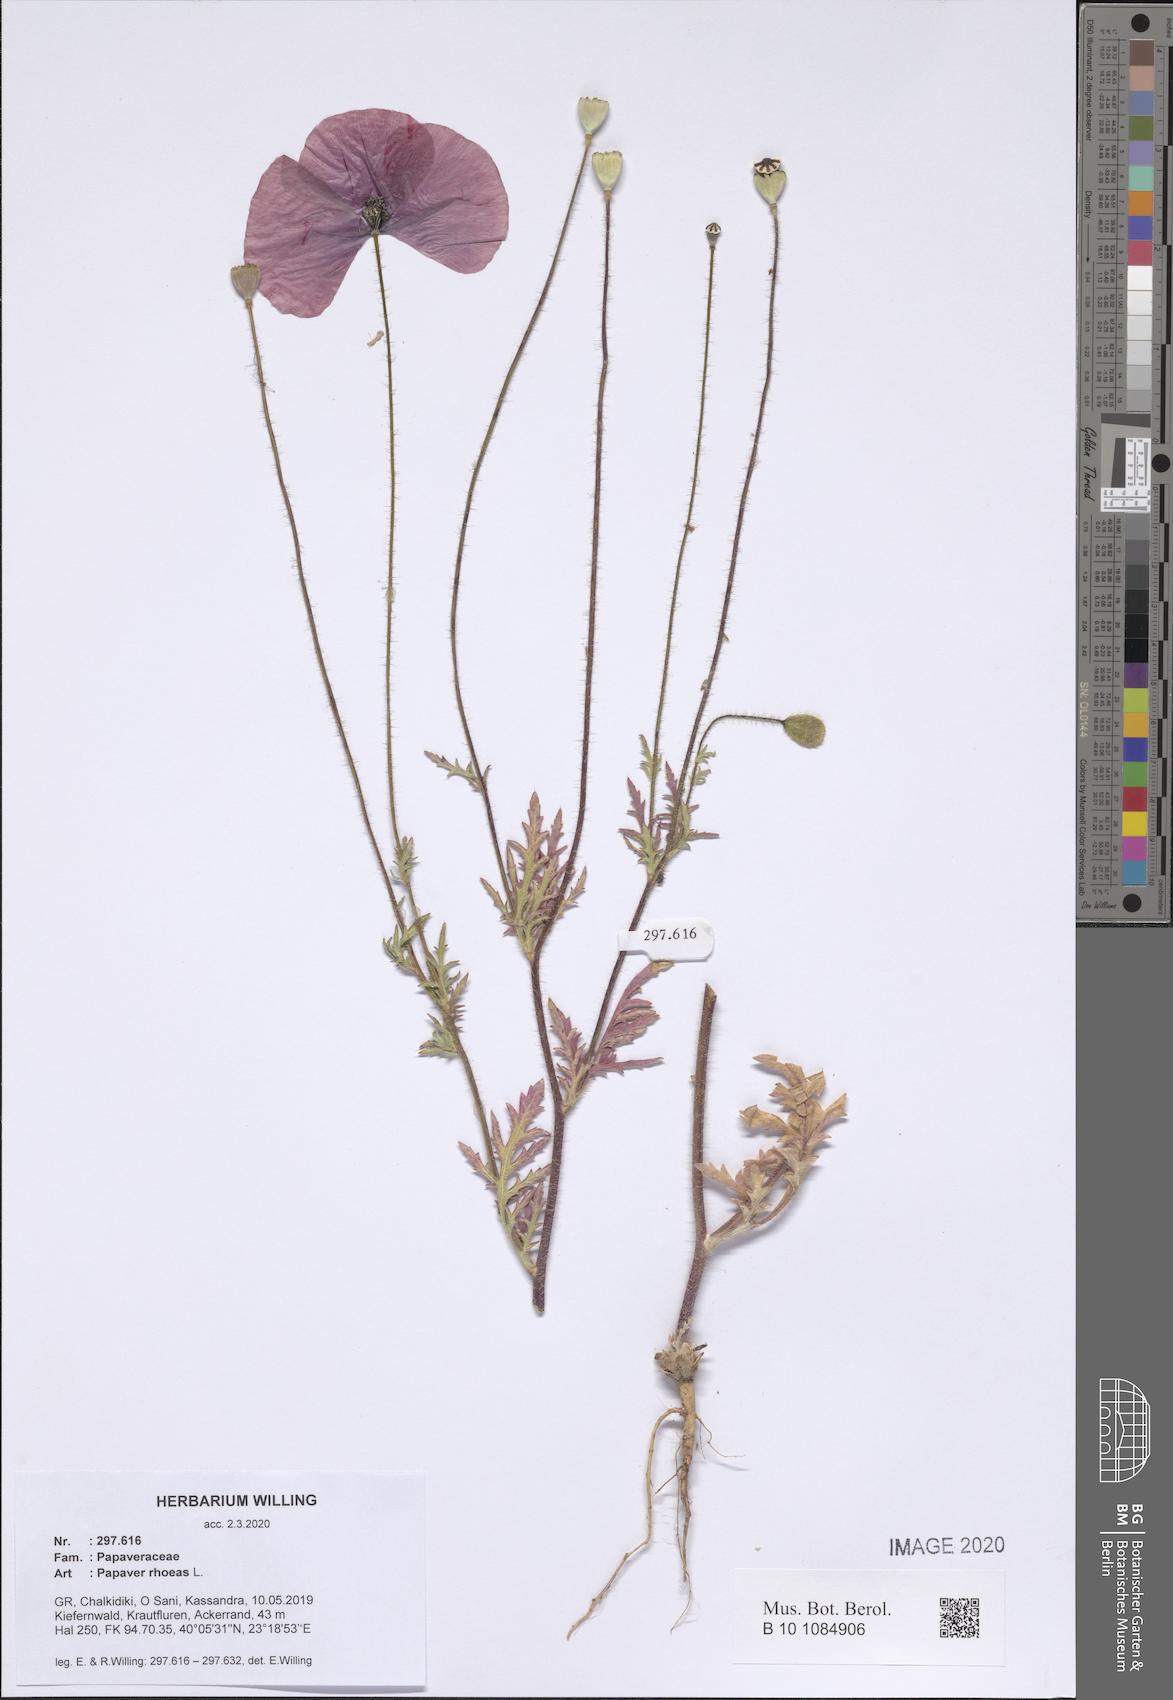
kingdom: Plantae
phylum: Tracheophyta
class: Magnoliopsida
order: Ranunculales
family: Papaveraceae
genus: Papaver
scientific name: Papaver rhoeas
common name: Corn poppy
